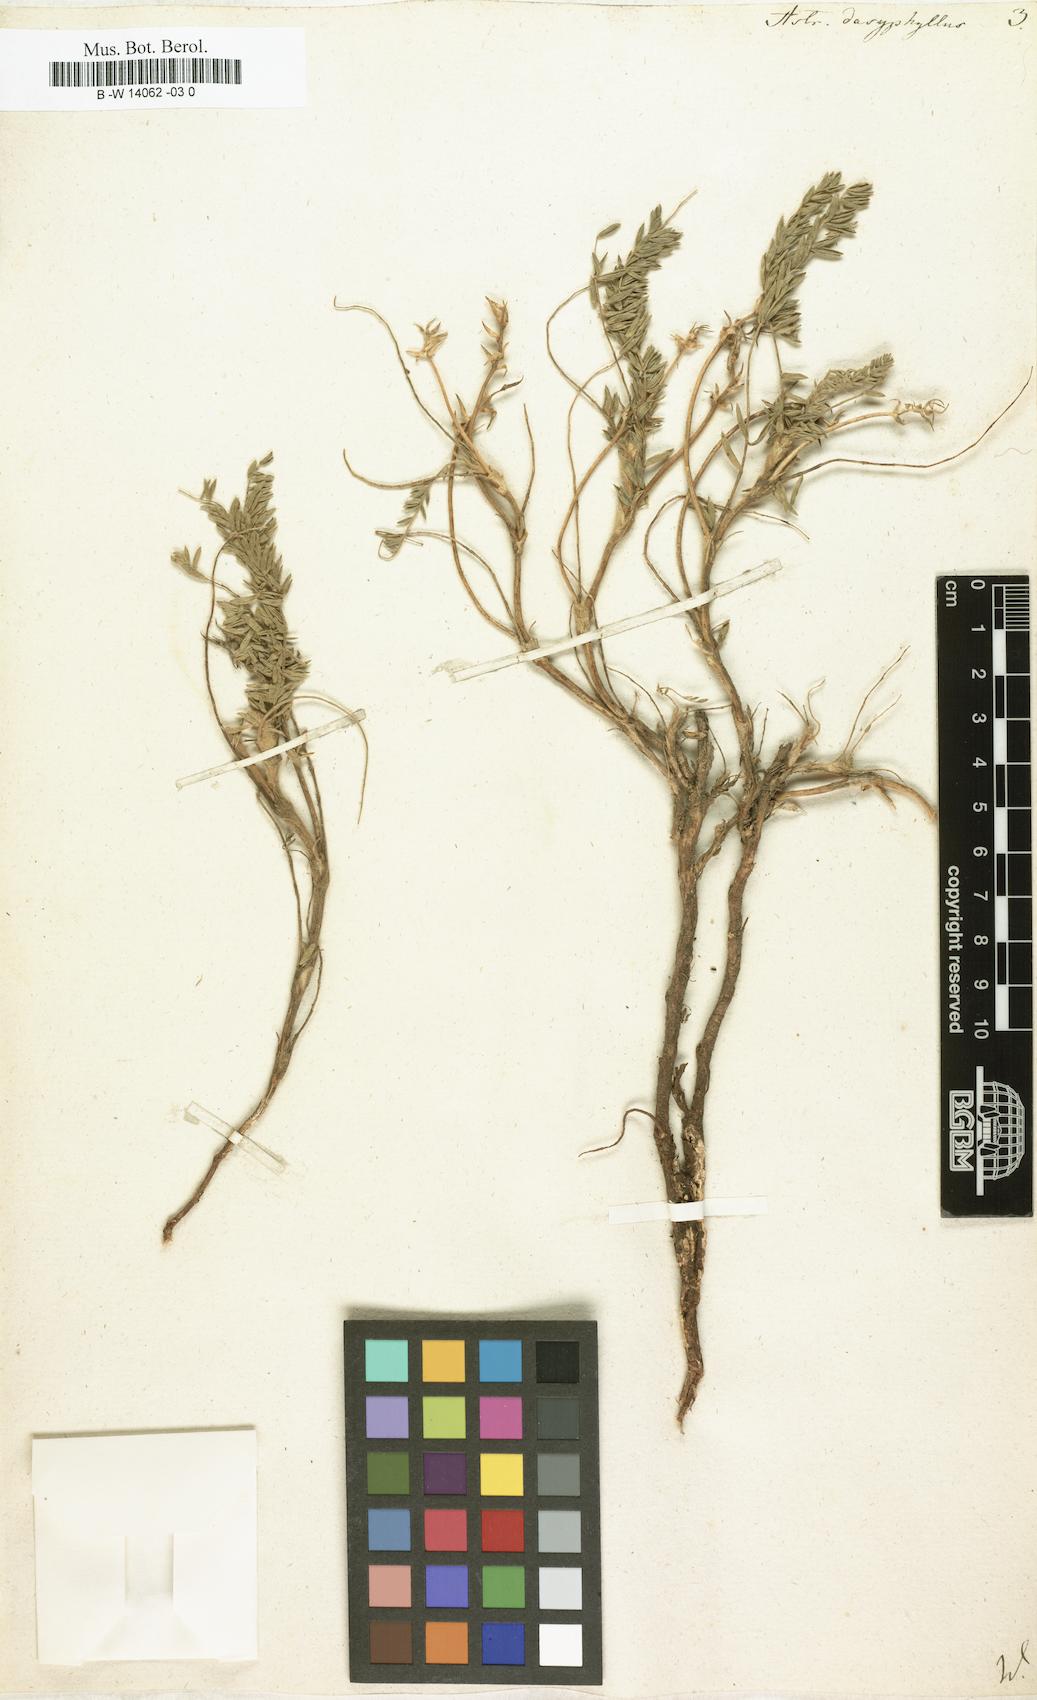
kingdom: Plantae
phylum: Tracheophyta
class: Magnoliopsida
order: Fabales
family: Fabaceae
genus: Oxytropis
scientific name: Oxytropis lanata
